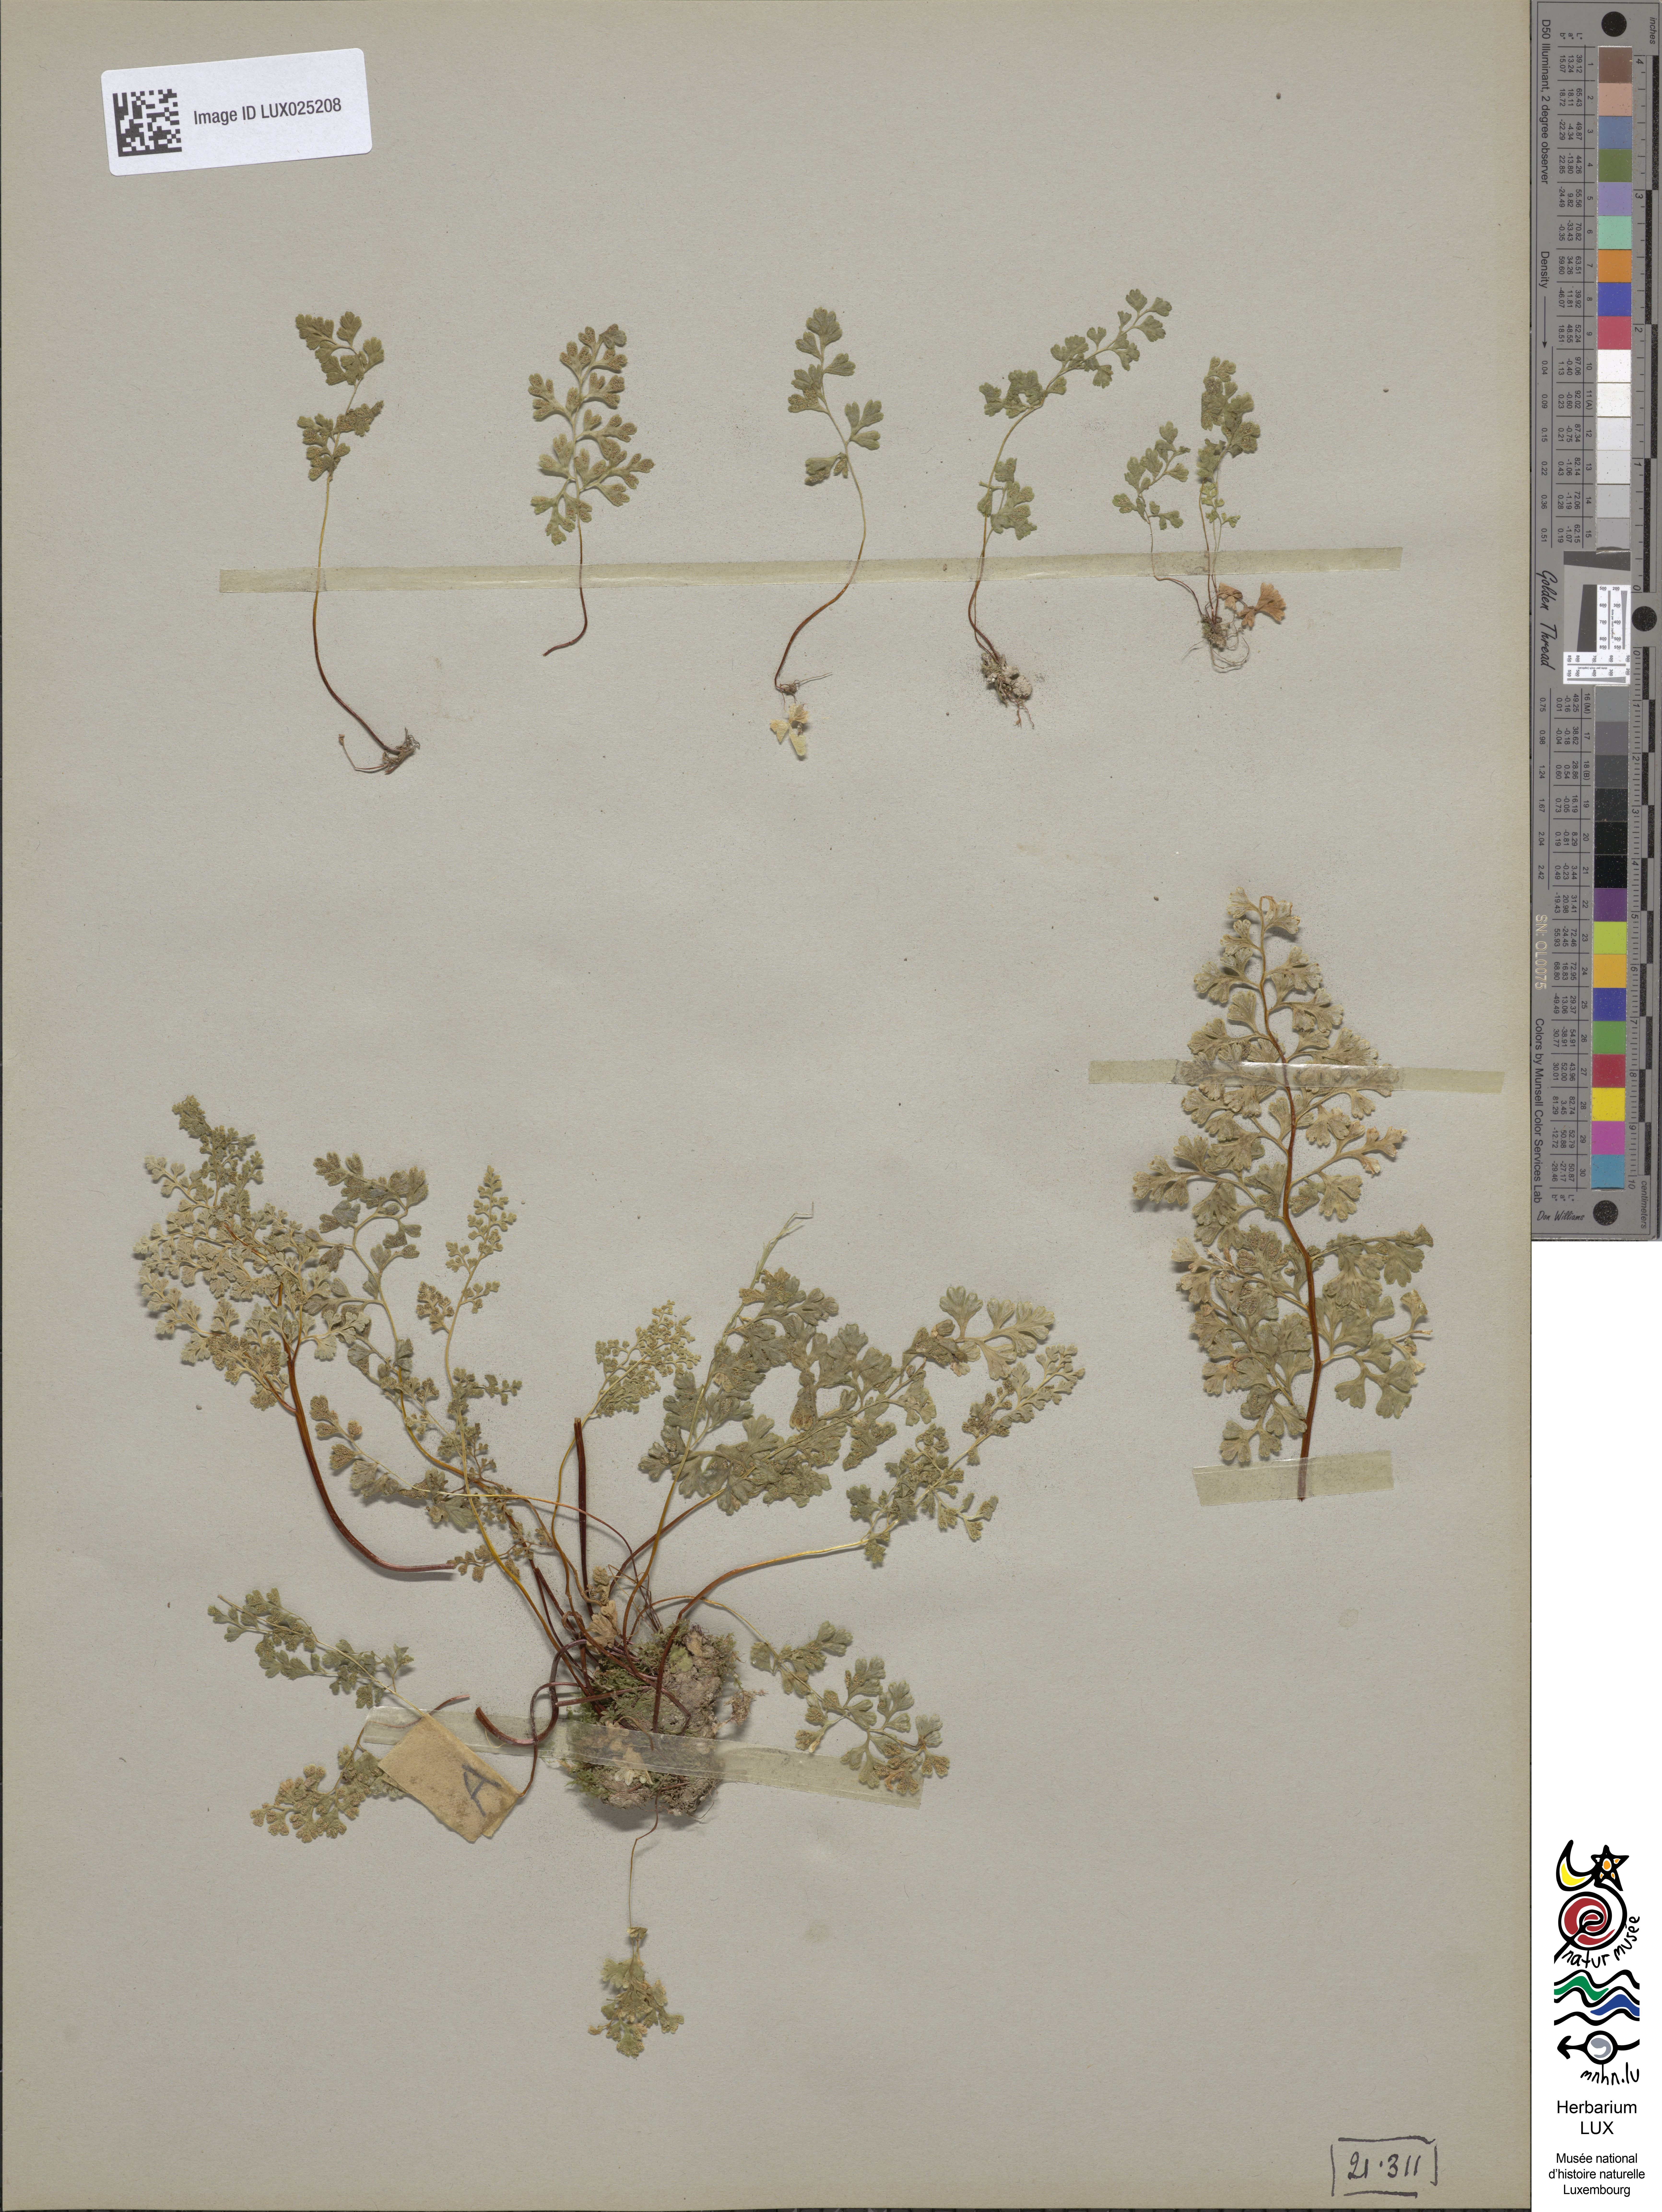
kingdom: Plantae
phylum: Tracheophyta
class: Polypodiopsida
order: Polypodiales
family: Pteridaceae
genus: Anogramma
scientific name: Anogramma leptophylla
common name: Jersey fern
